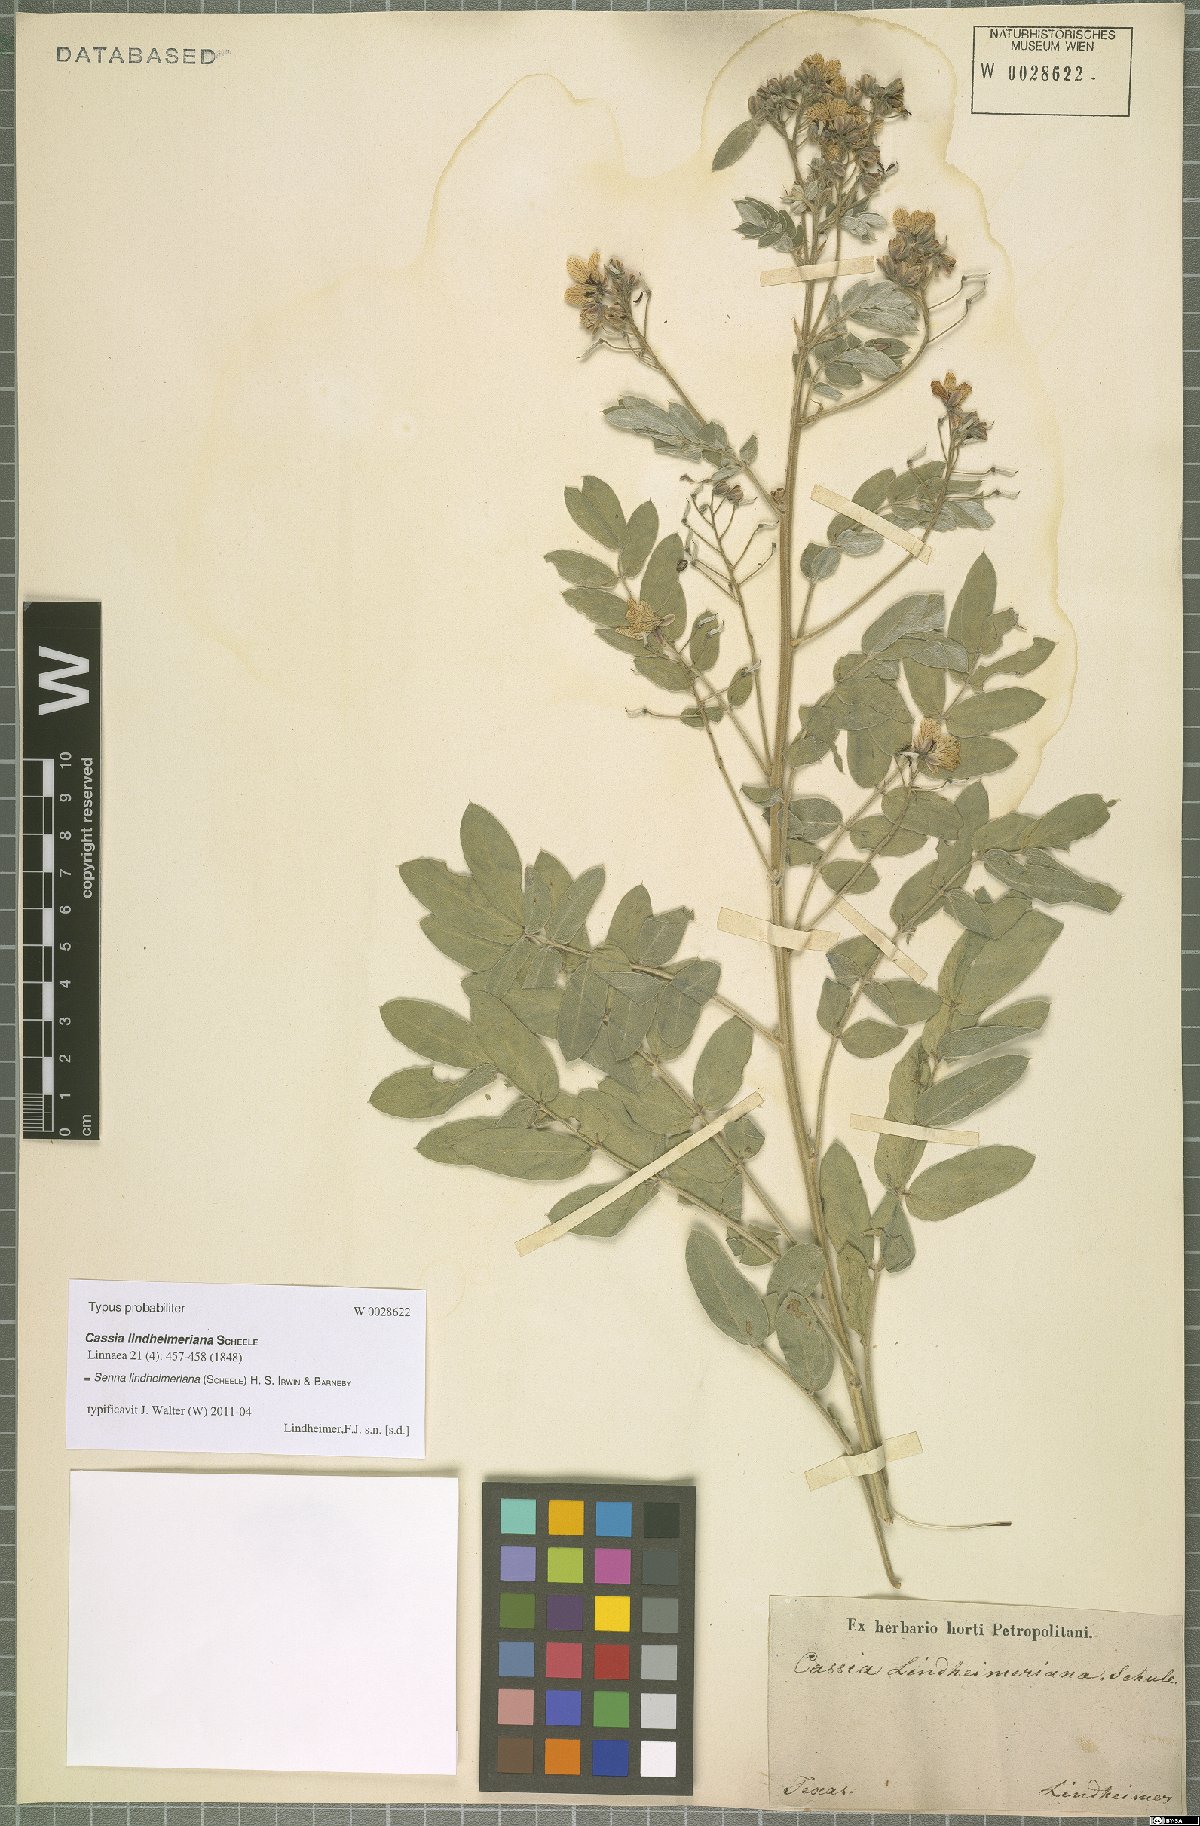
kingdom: Plantae
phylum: Tracheophyta
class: Magnoliopsida
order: Fabales
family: Fabaceae
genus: Senna
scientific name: Senna lindheimeriana
